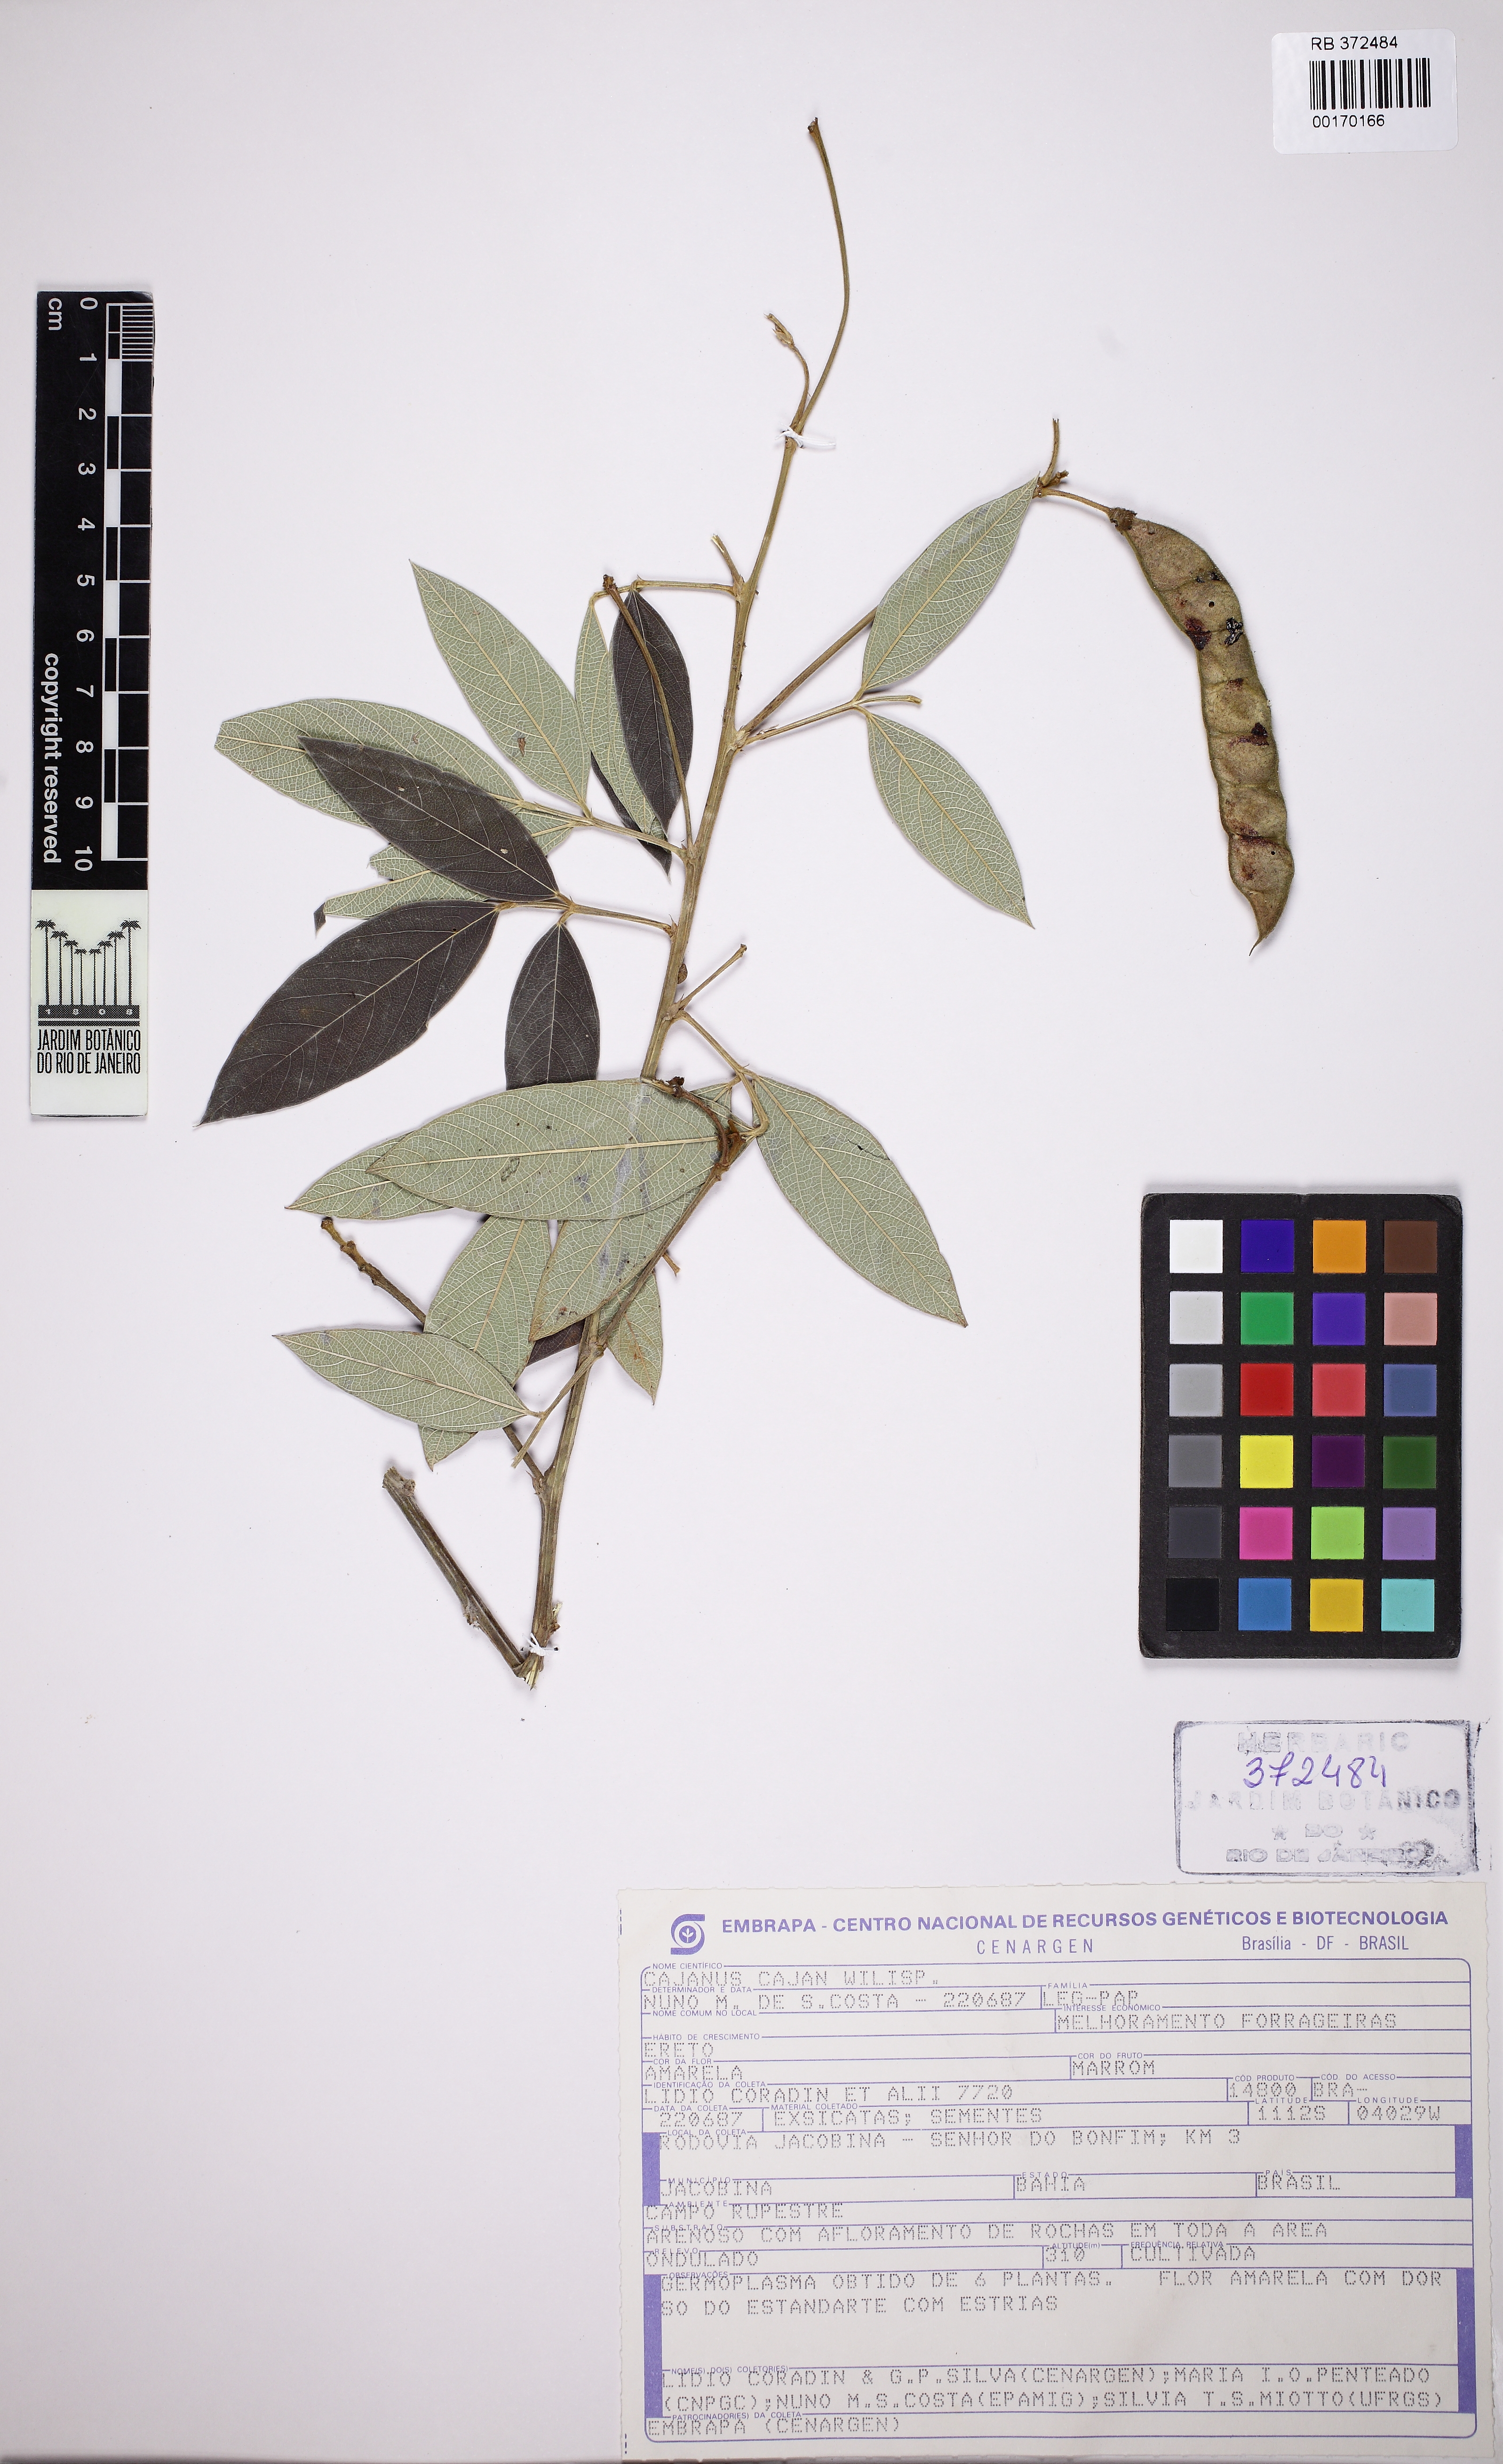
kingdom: Plantae
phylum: Tracheophyta
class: Magnoliopsida
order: Fabales
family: Fabaceae
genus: Cajanus
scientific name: Cajanus cajan
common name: Pigeonpea
